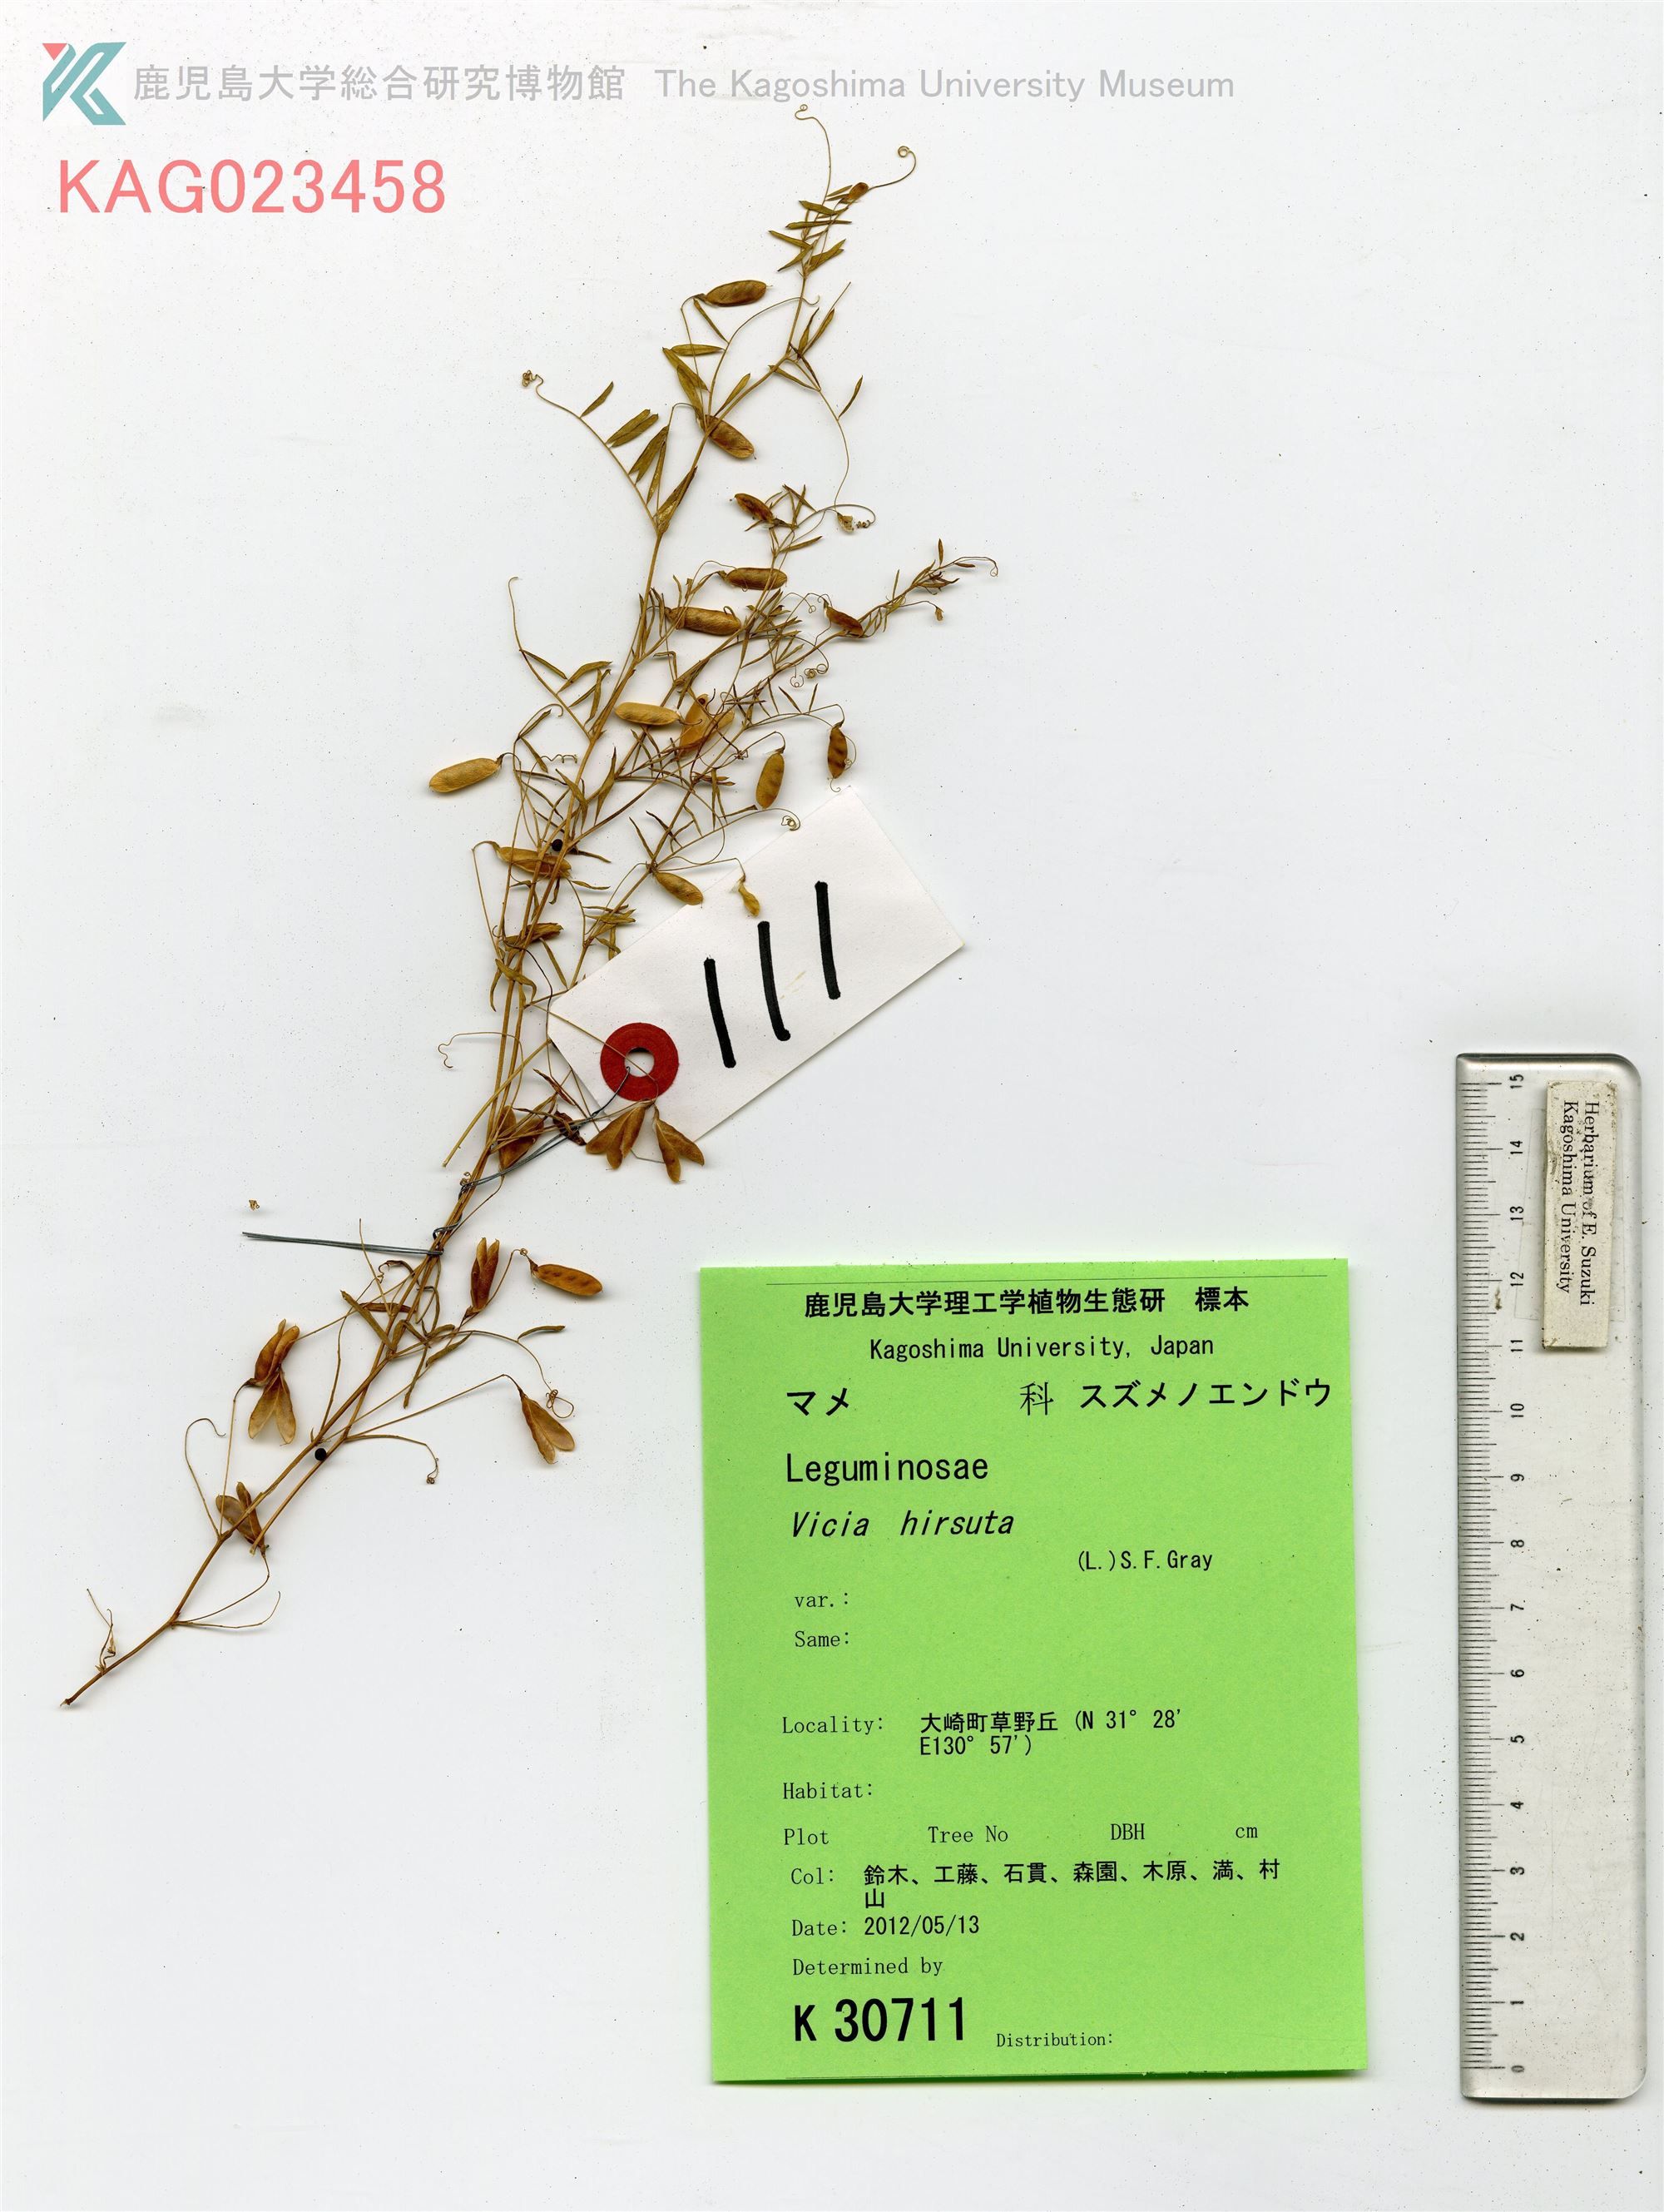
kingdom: Plantae
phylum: Tracheophyta
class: Magnoliopsida
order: Fabales
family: Fabaceae
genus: Vicia
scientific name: Vicia hirsuta
